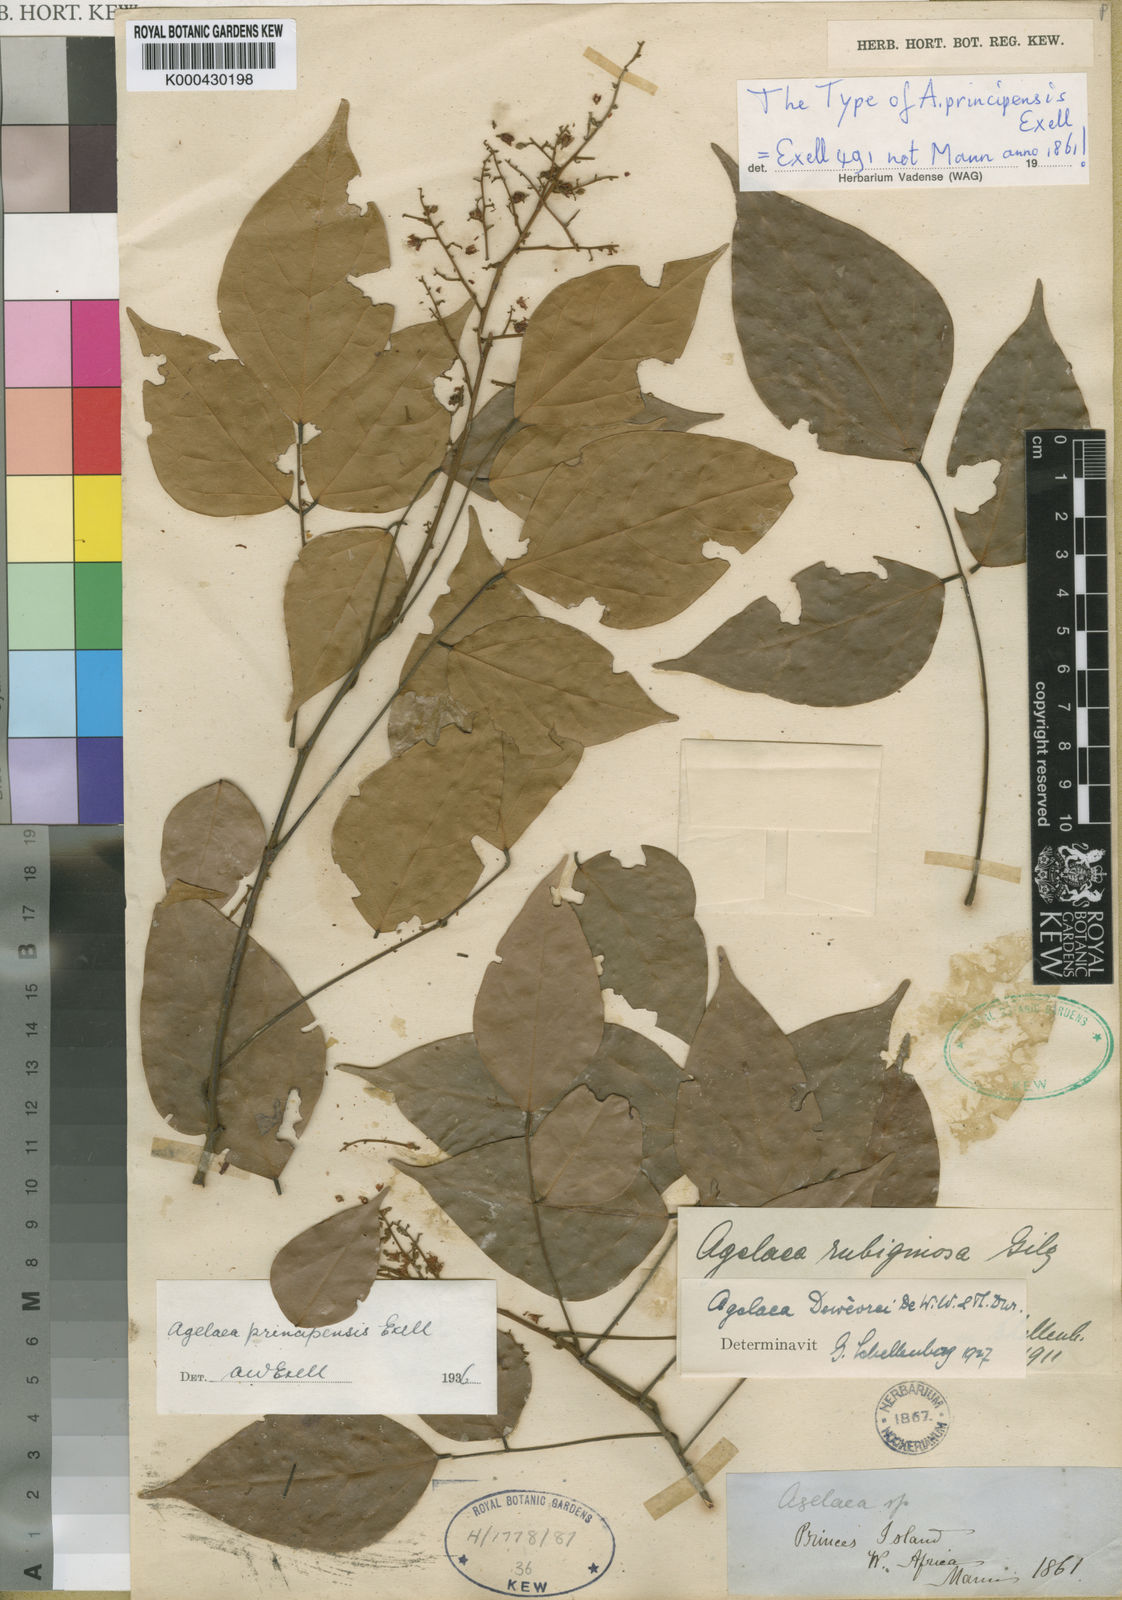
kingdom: Plantae
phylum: Tracheophyta
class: Magnoliopsida
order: Oxalidales
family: Connaraceae
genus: Agelaea
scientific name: Agelaea rubiginosa
